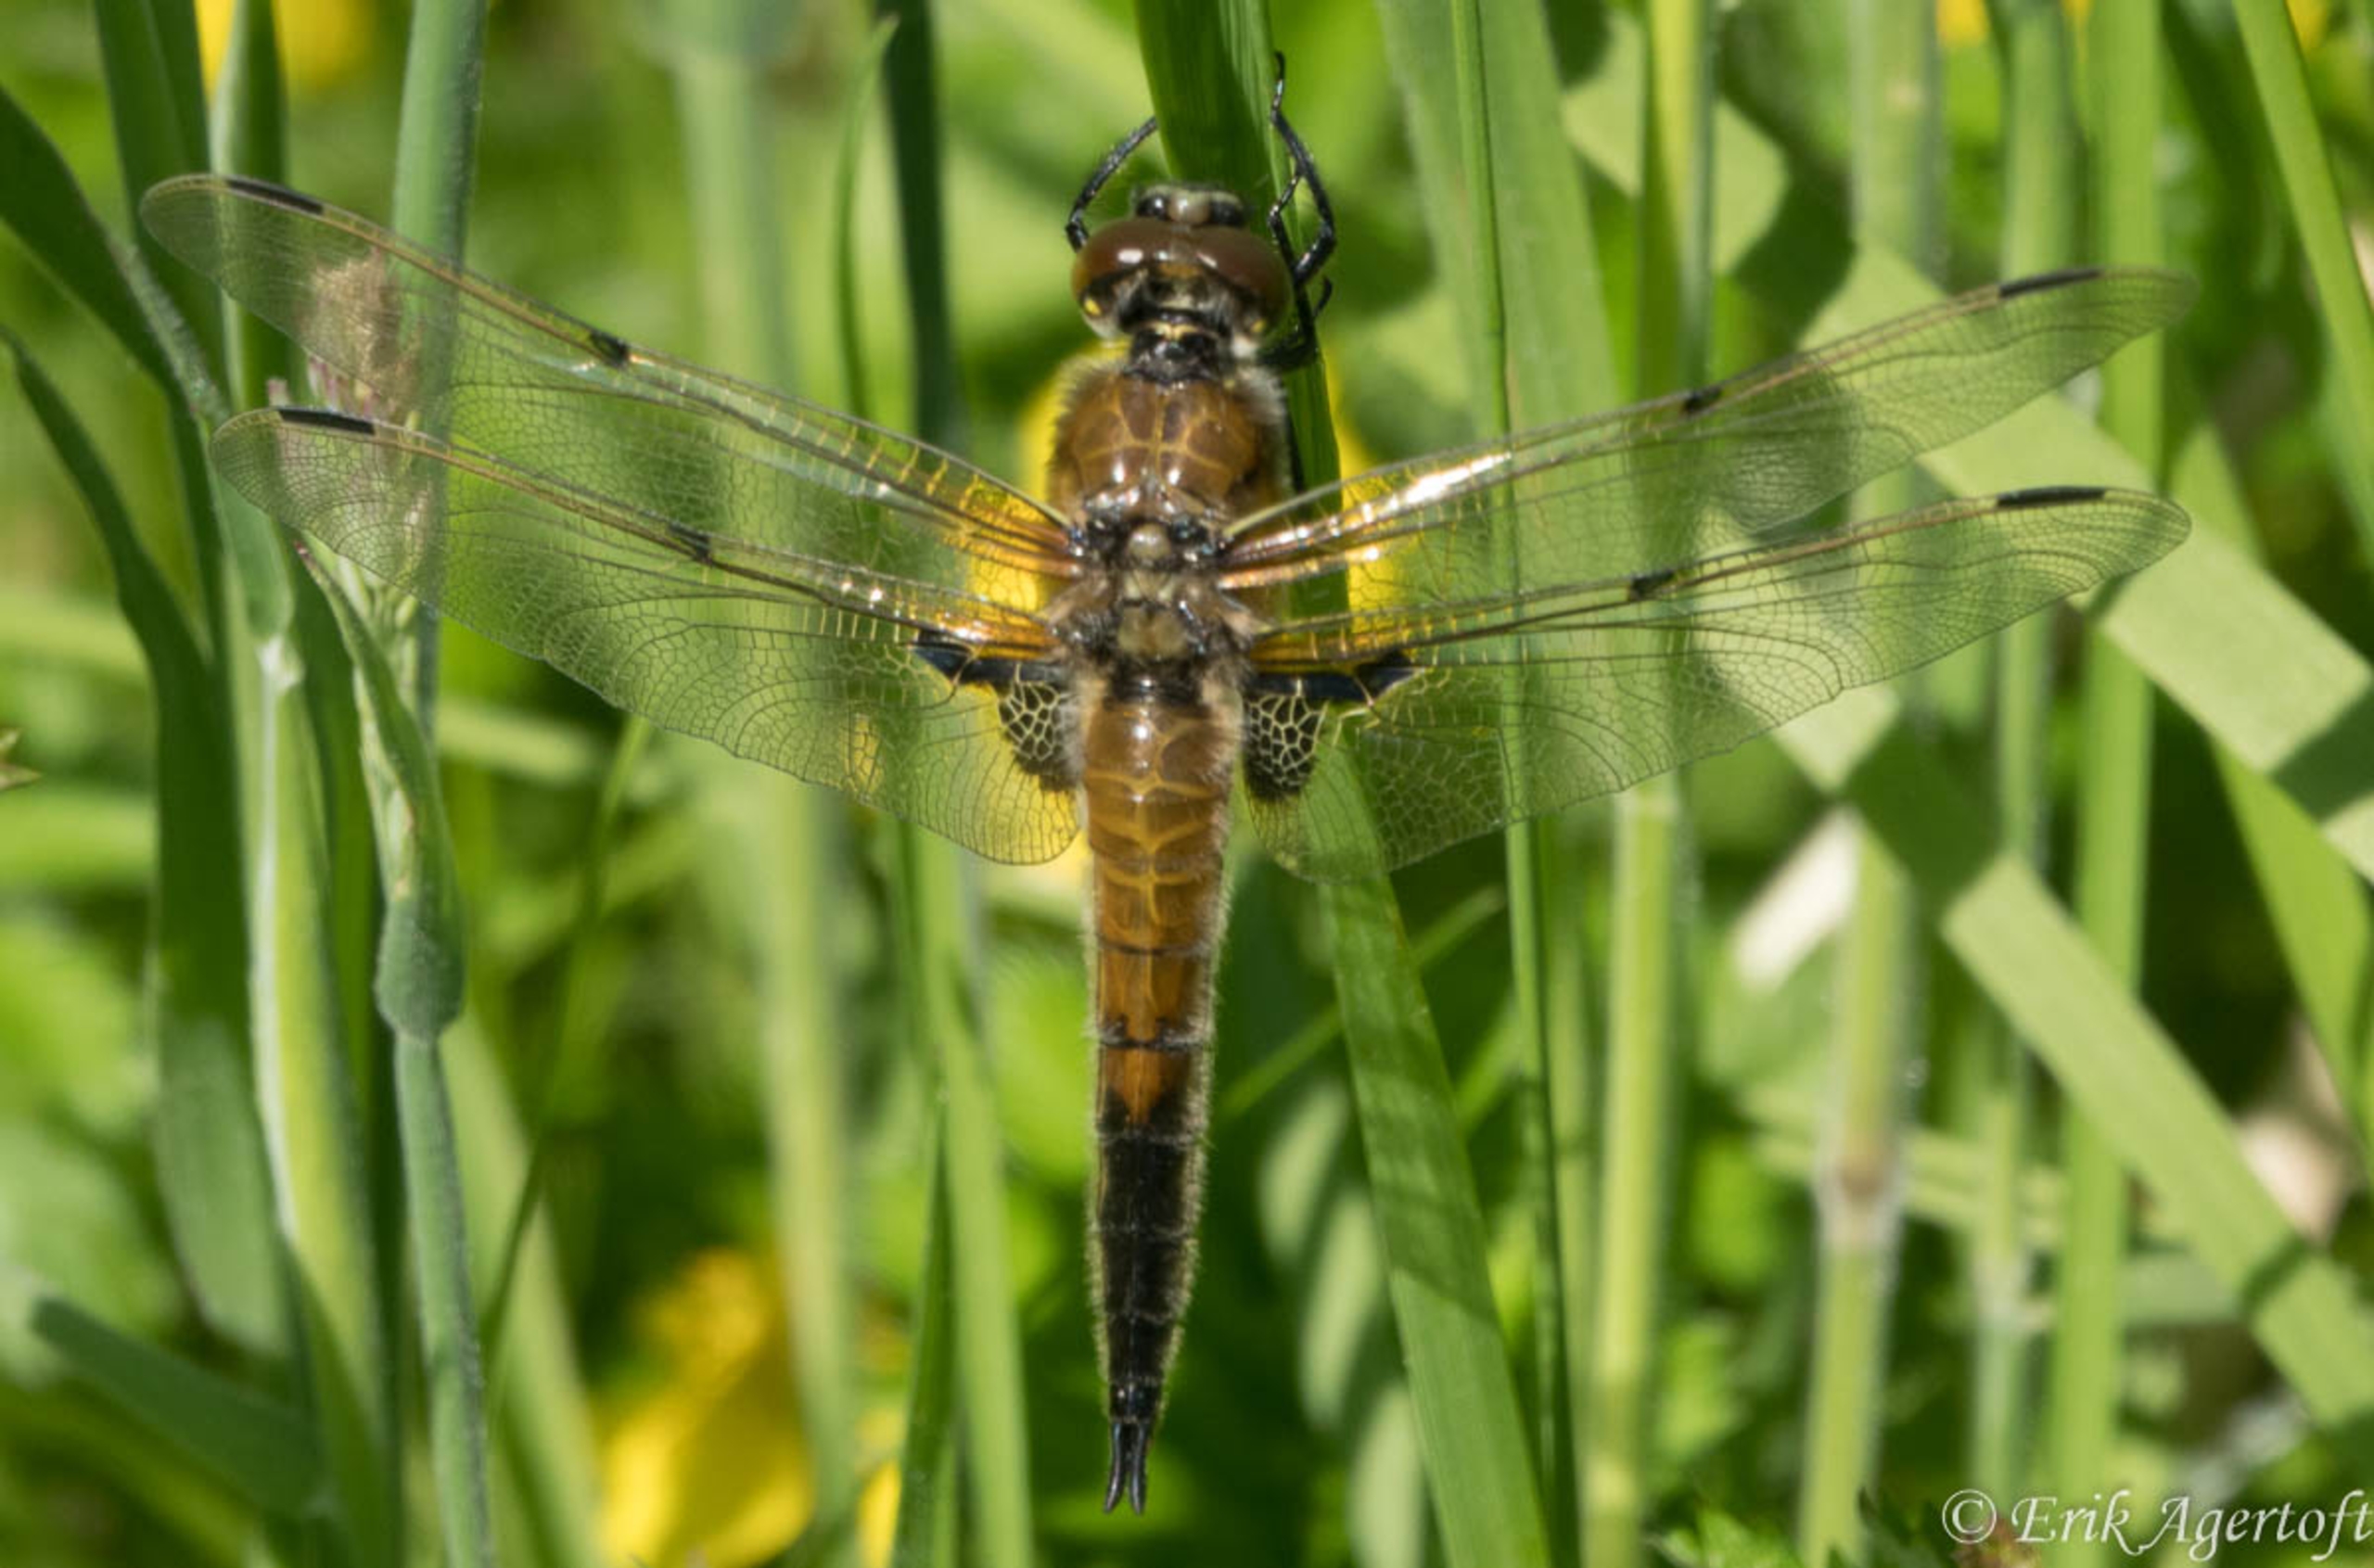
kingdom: Animalia
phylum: Arthropoda
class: Insecta
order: Odonata
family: Libellulidae
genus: Libellula
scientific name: Libellula quadrimaculata
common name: Fireplettet libel
